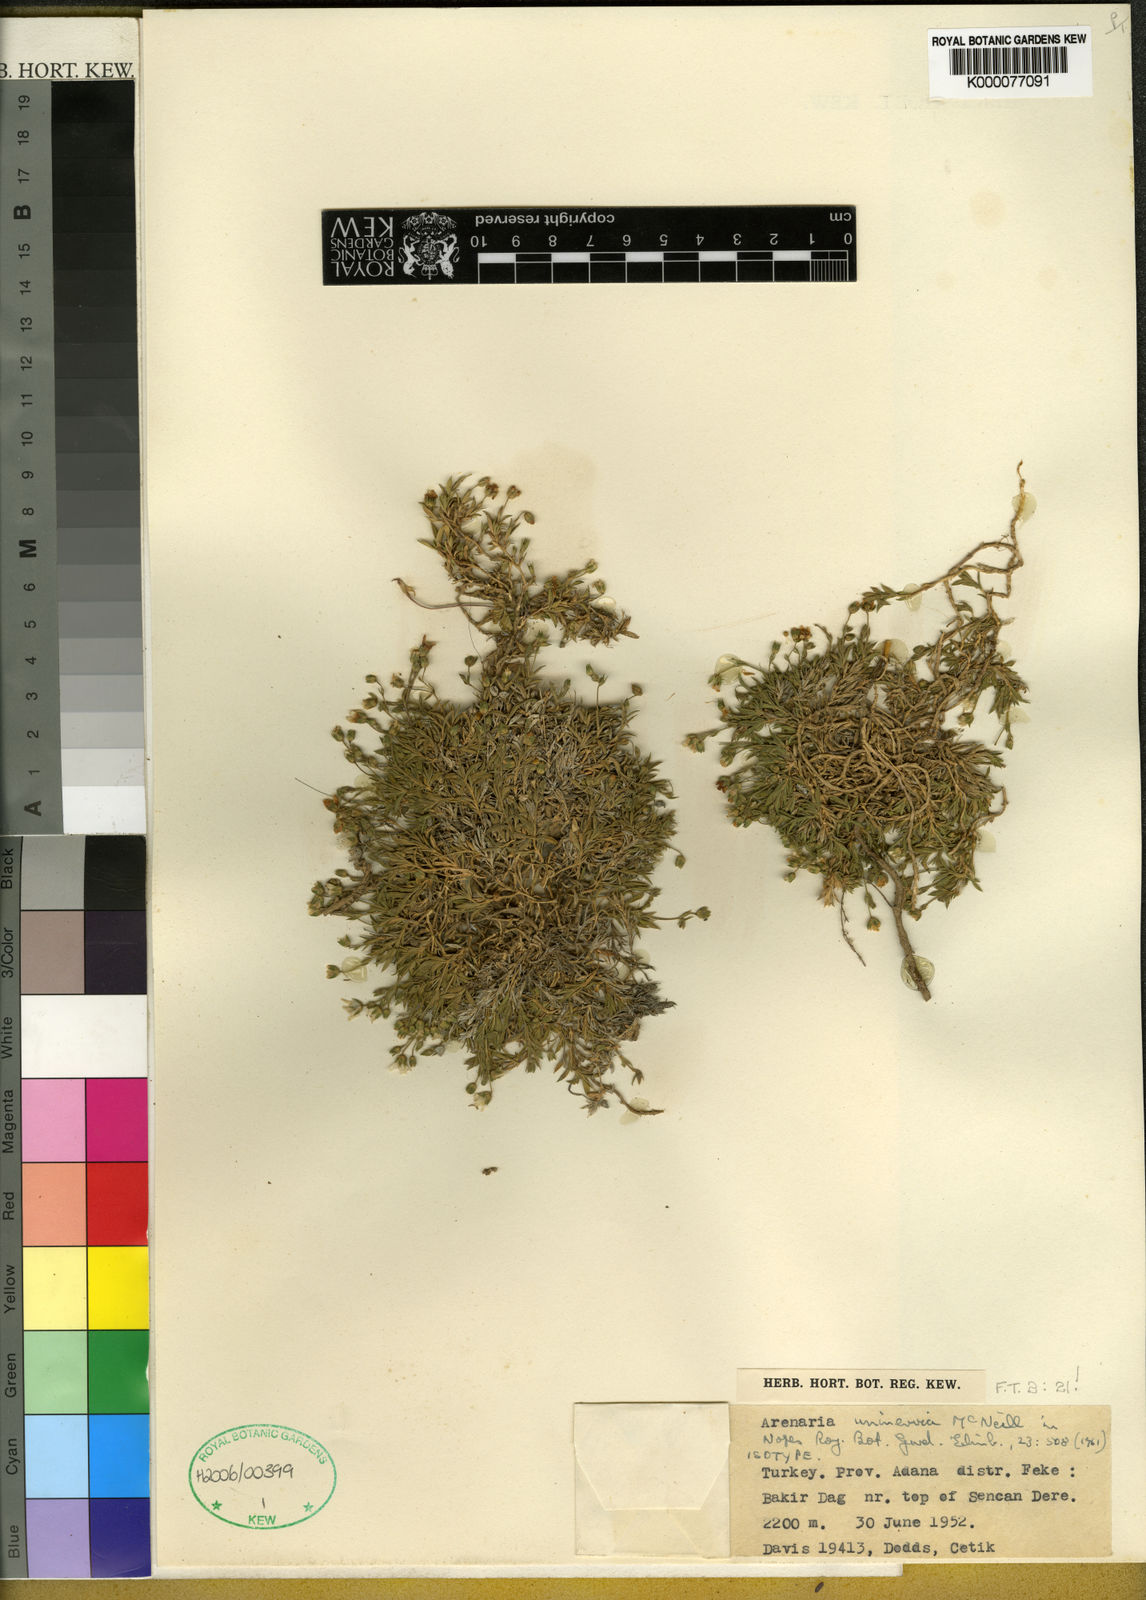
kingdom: Plantae
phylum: Tracheophyta
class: Magnoliopsida
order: Caryophyllales
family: Caryophyllaceae
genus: Arenaria
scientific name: Arenaria uninervia
